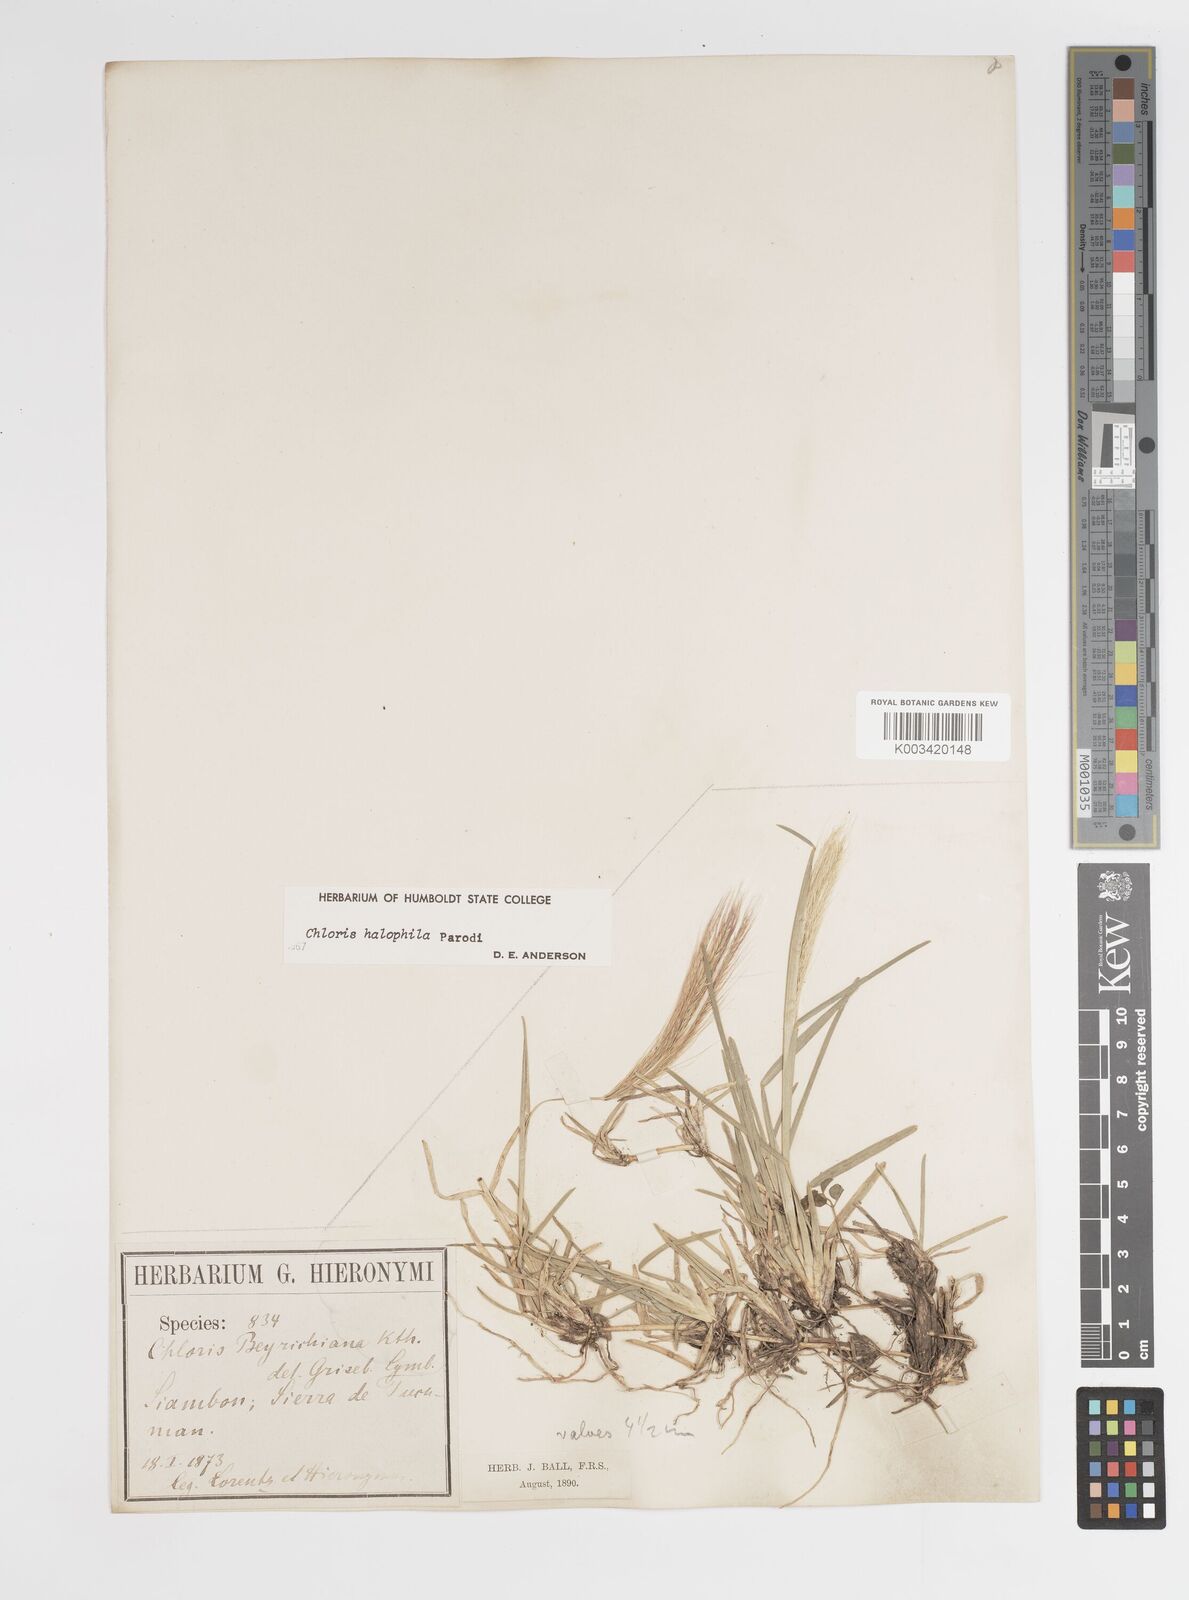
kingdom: Plantae
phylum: Tracheophyta
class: Liliopsida
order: Poales
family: Poaceae
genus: Chloris
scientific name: Chloris halophila
